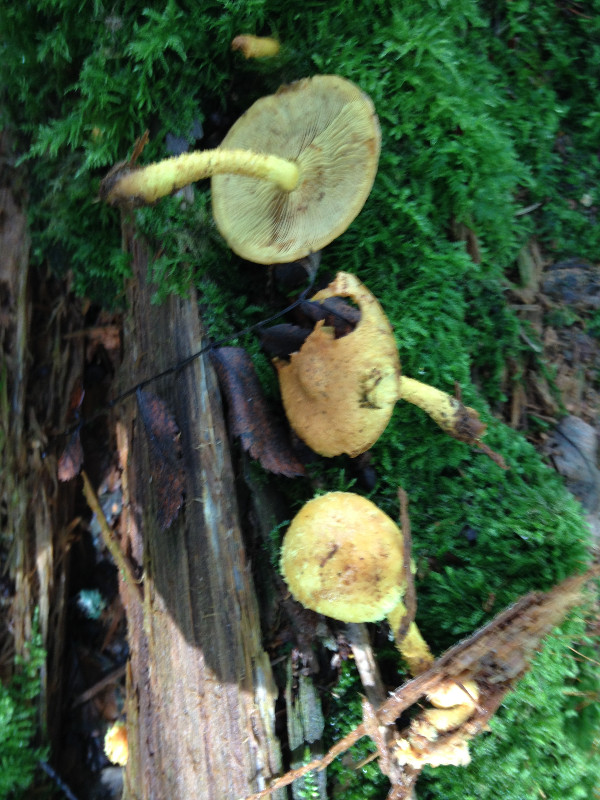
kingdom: Fungi
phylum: Basidiomycota
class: Agaricomycetes
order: Agaricales
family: Strophariaceae
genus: Pholiota
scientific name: Pholiota flammans
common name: flamme-skælhat
